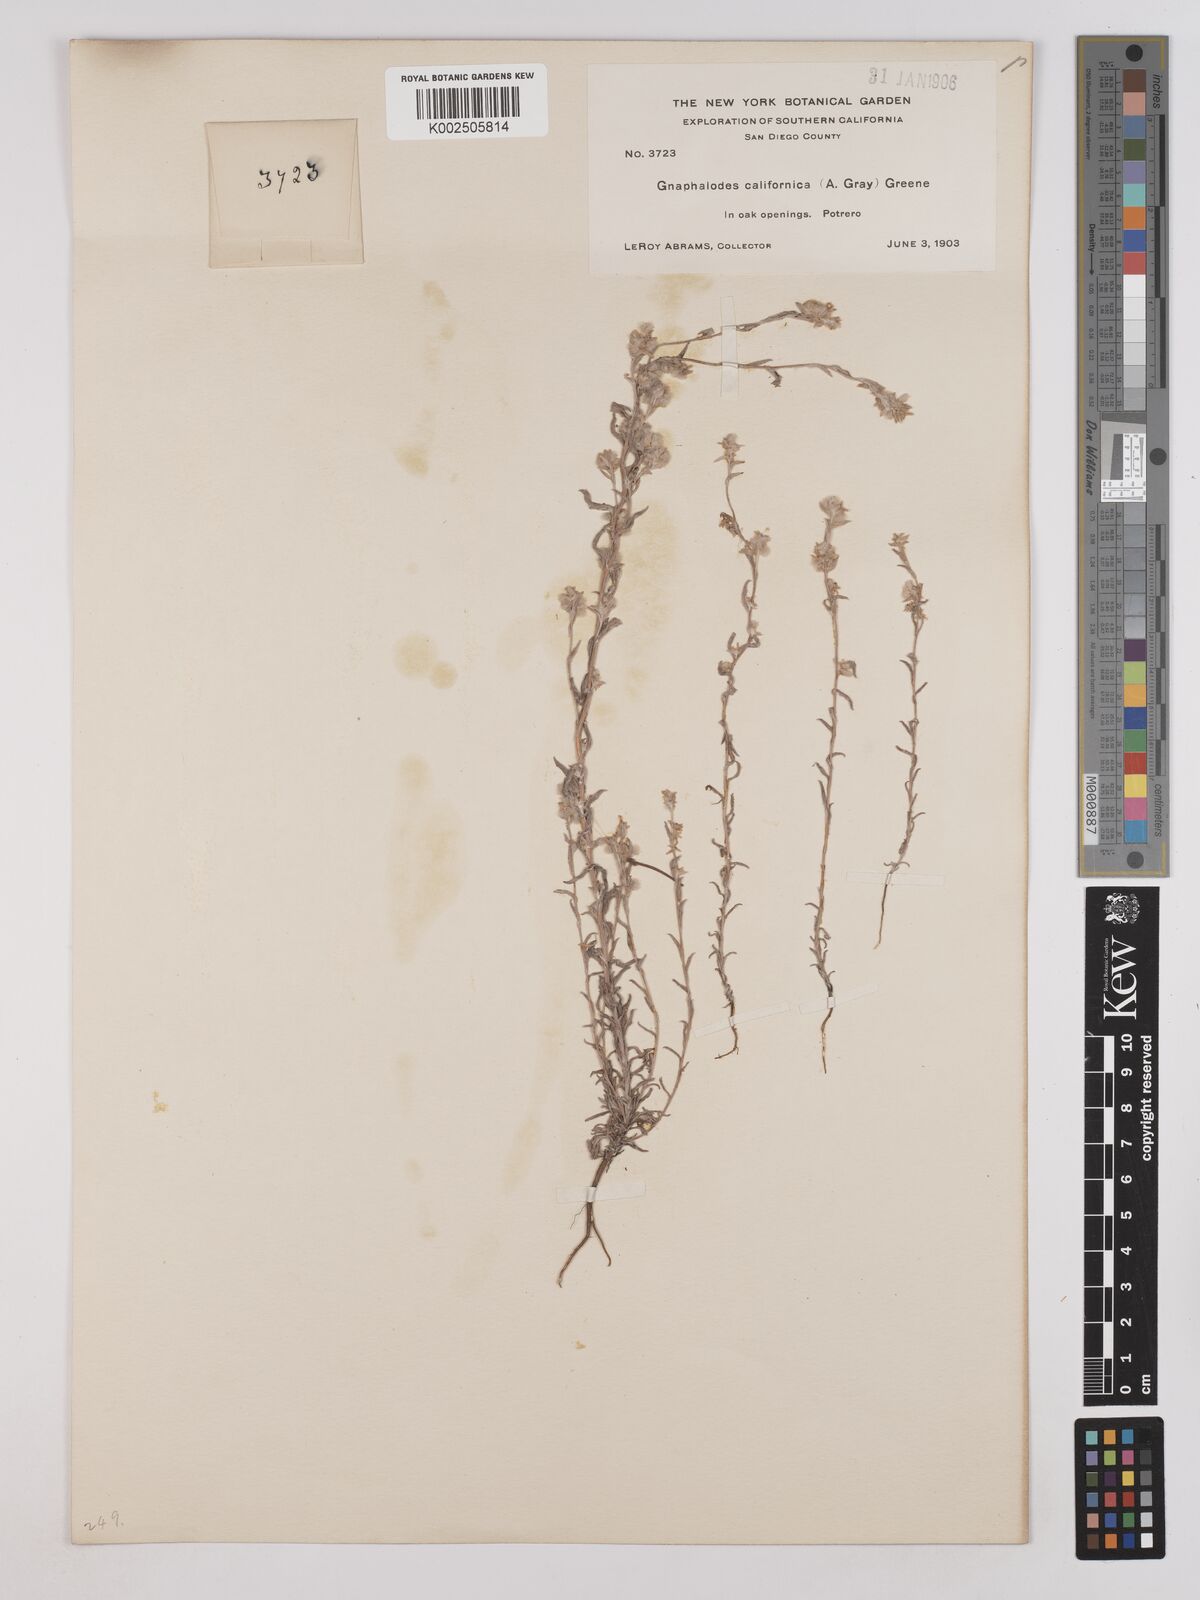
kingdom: Plantae
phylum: Tracheophyta
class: Magnoliopsida
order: Asterales
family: Asteraceae
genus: Bombycilaena
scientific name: Bombycilaena californica
